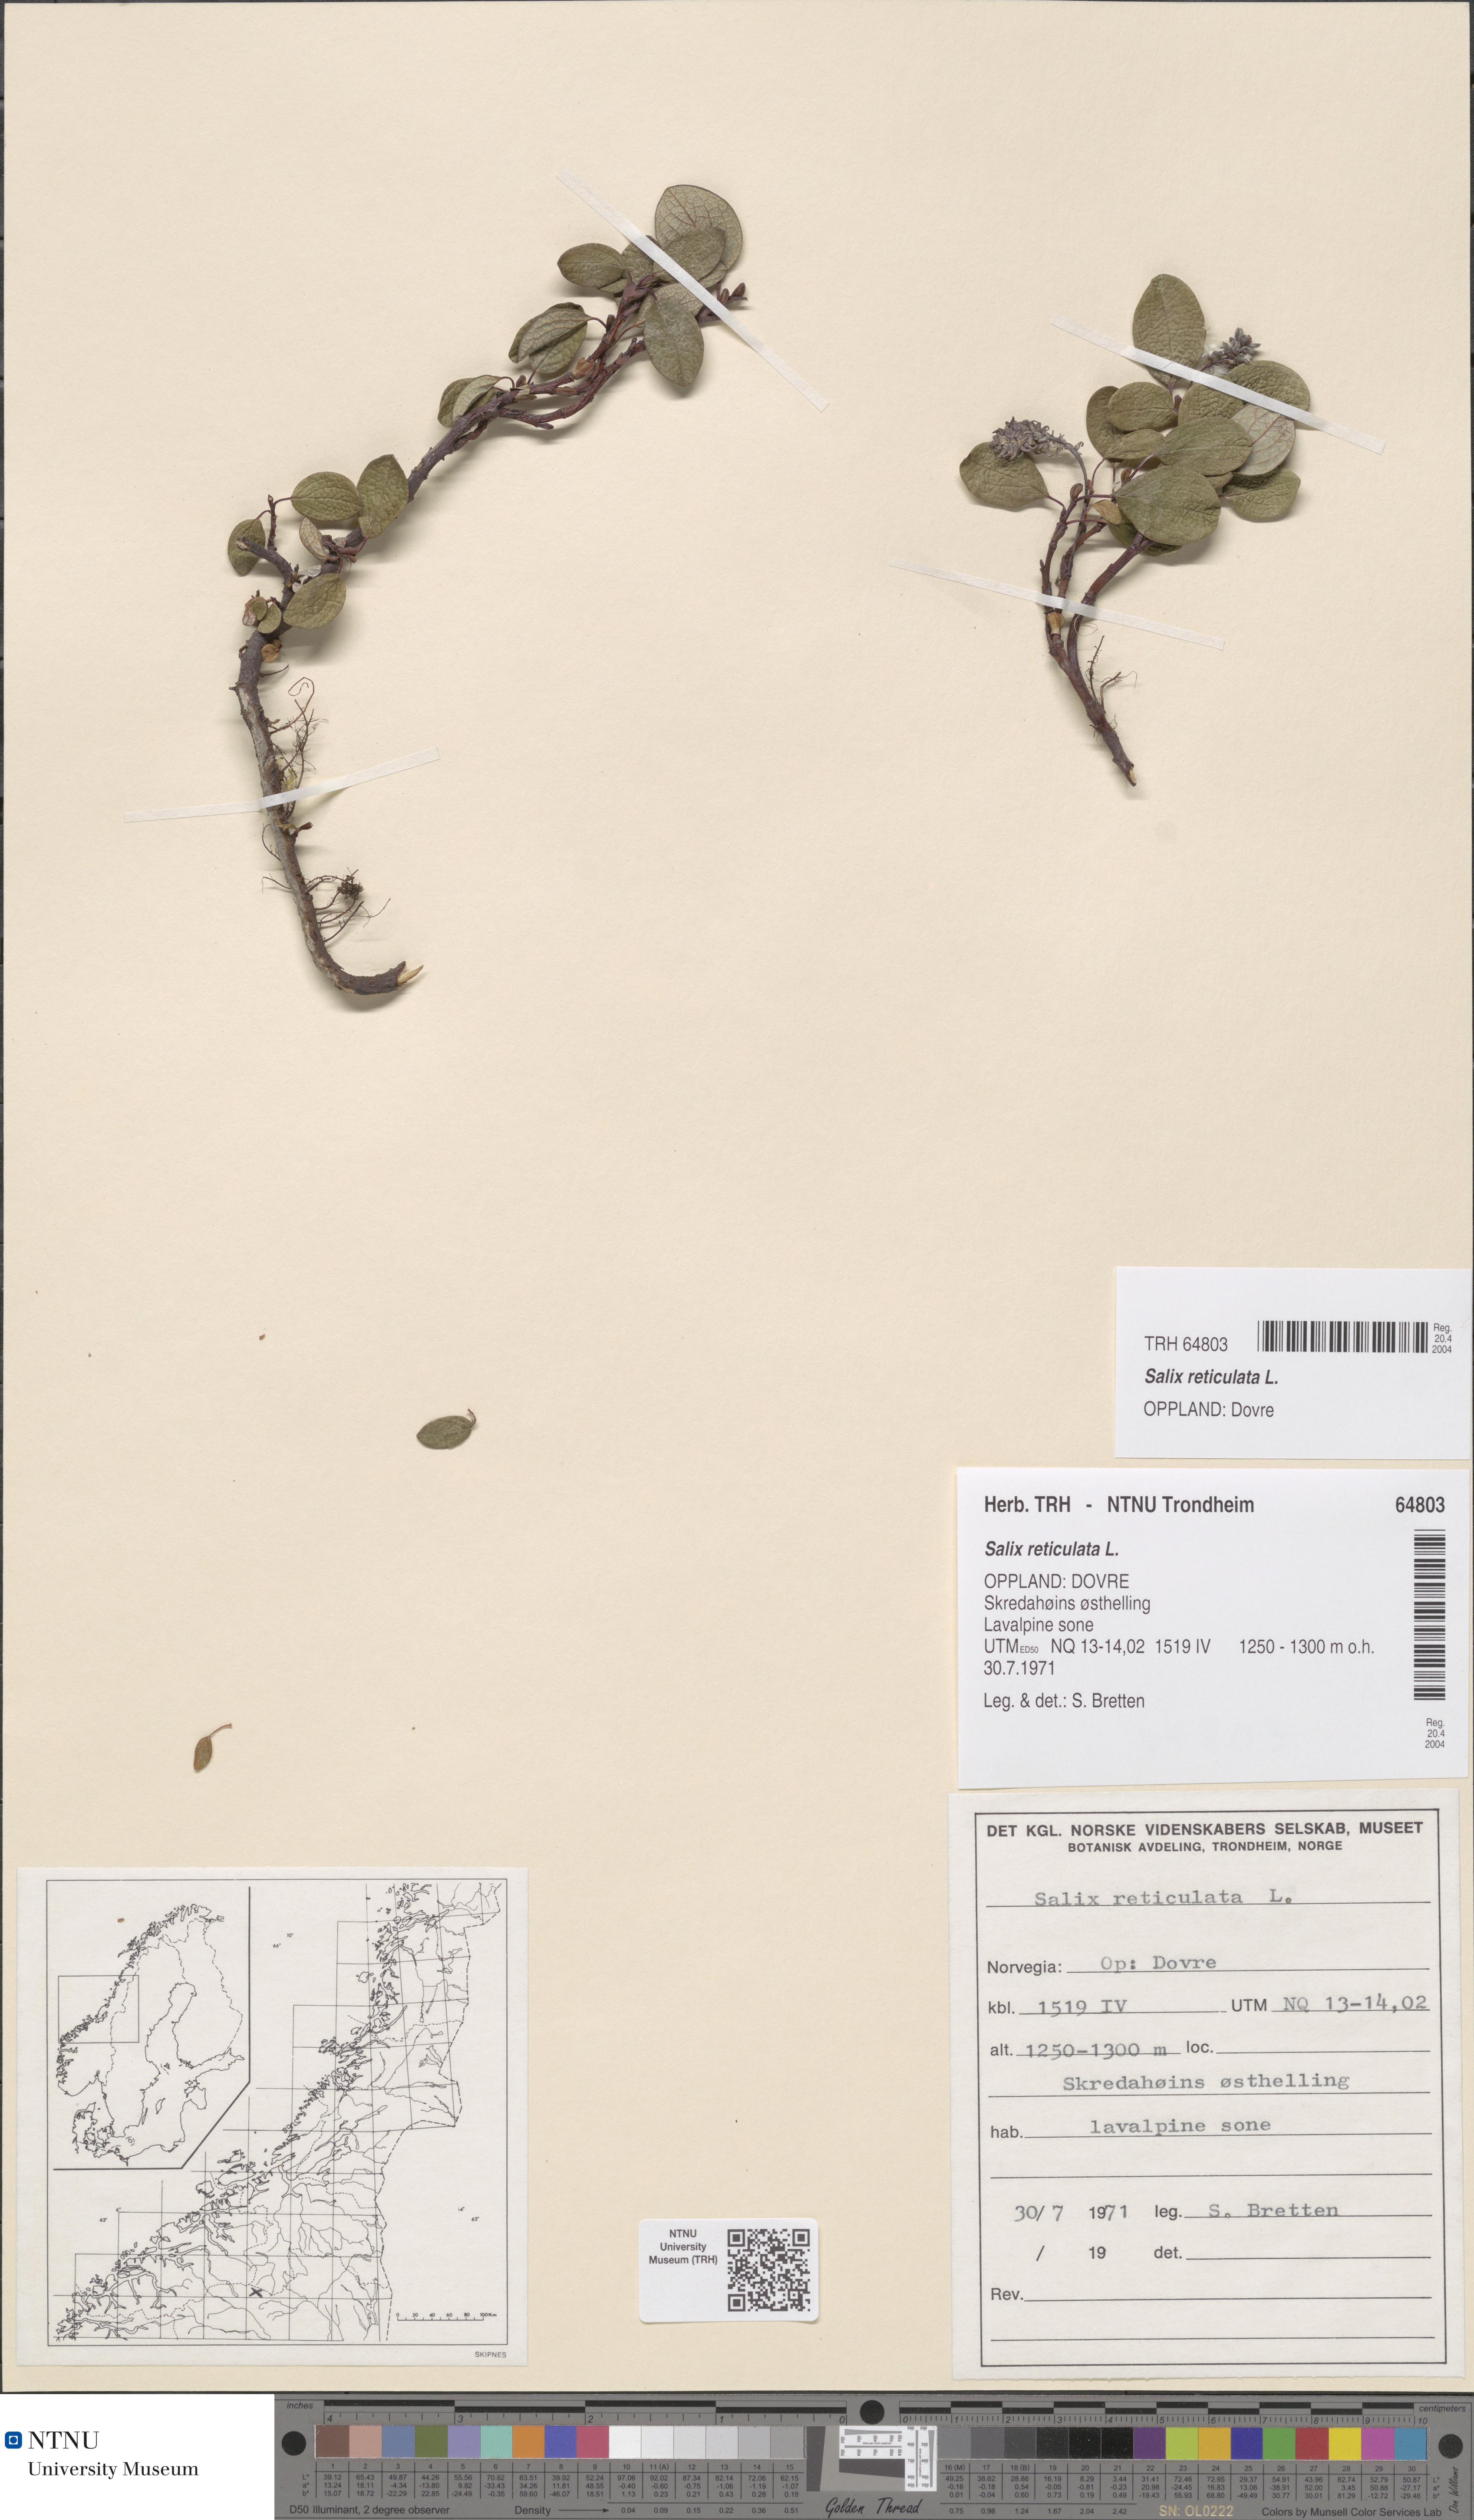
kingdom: Plantae
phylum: Tracheophyta
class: Magnoliopsida
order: Malpighiales
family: Salicaceae
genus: Salix
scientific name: Salix reticulata
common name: Net-leaved willow
